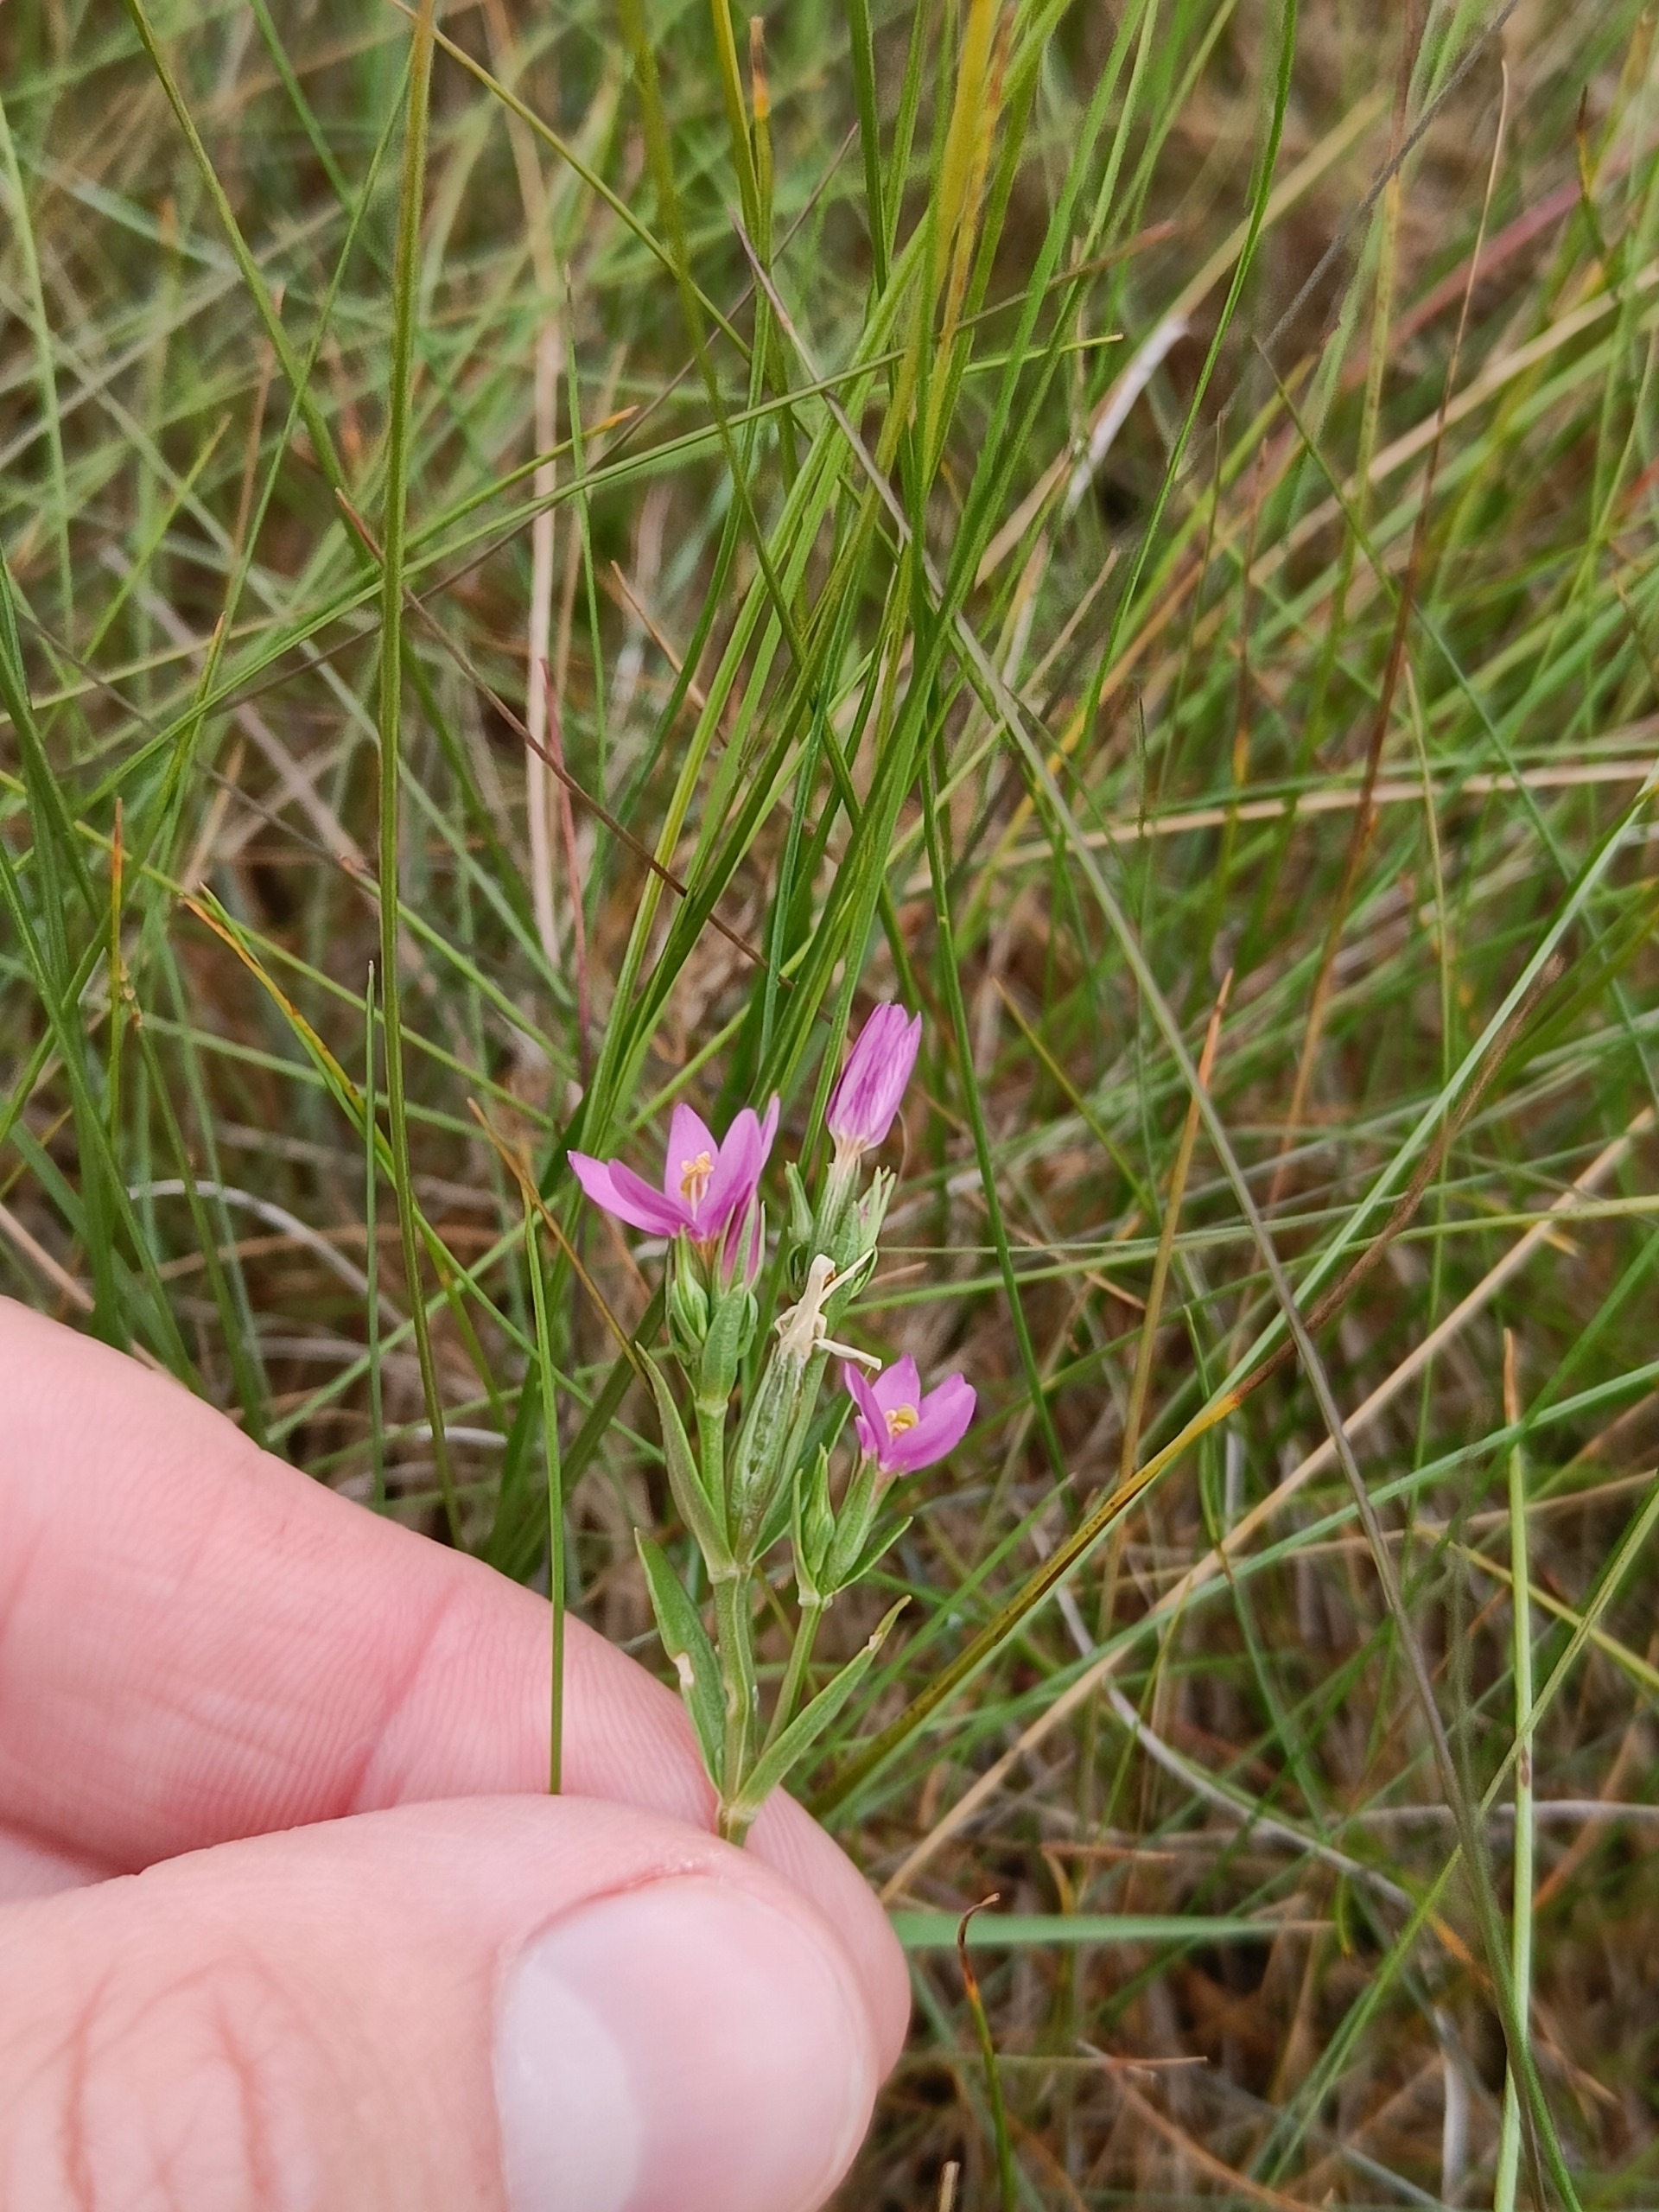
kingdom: Plantae
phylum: Tracheophyta
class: Magnoliopsida
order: Gentianales
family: Gentianaceae
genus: Centaurium
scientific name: Centaurium littorale
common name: Strand-tusindgylden
